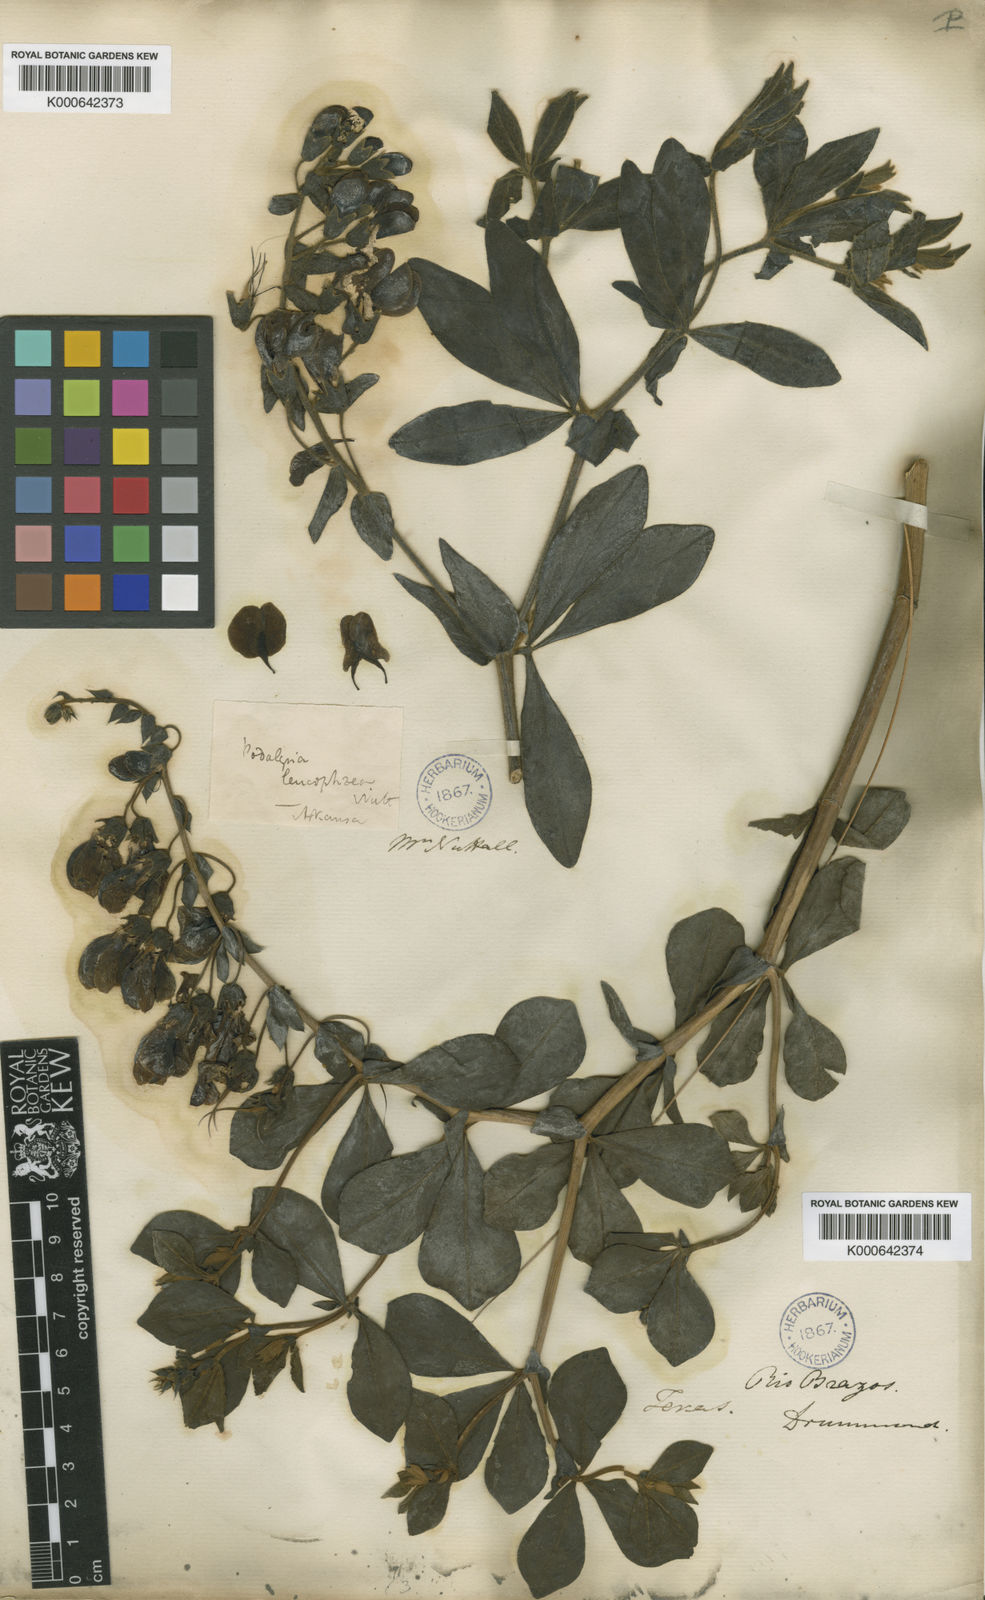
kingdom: Plantae
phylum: Tracheophyta
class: Magnoliopsida
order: Fabales
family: Fabaceae
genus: Baptisia
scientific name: Baptisia bracteata
